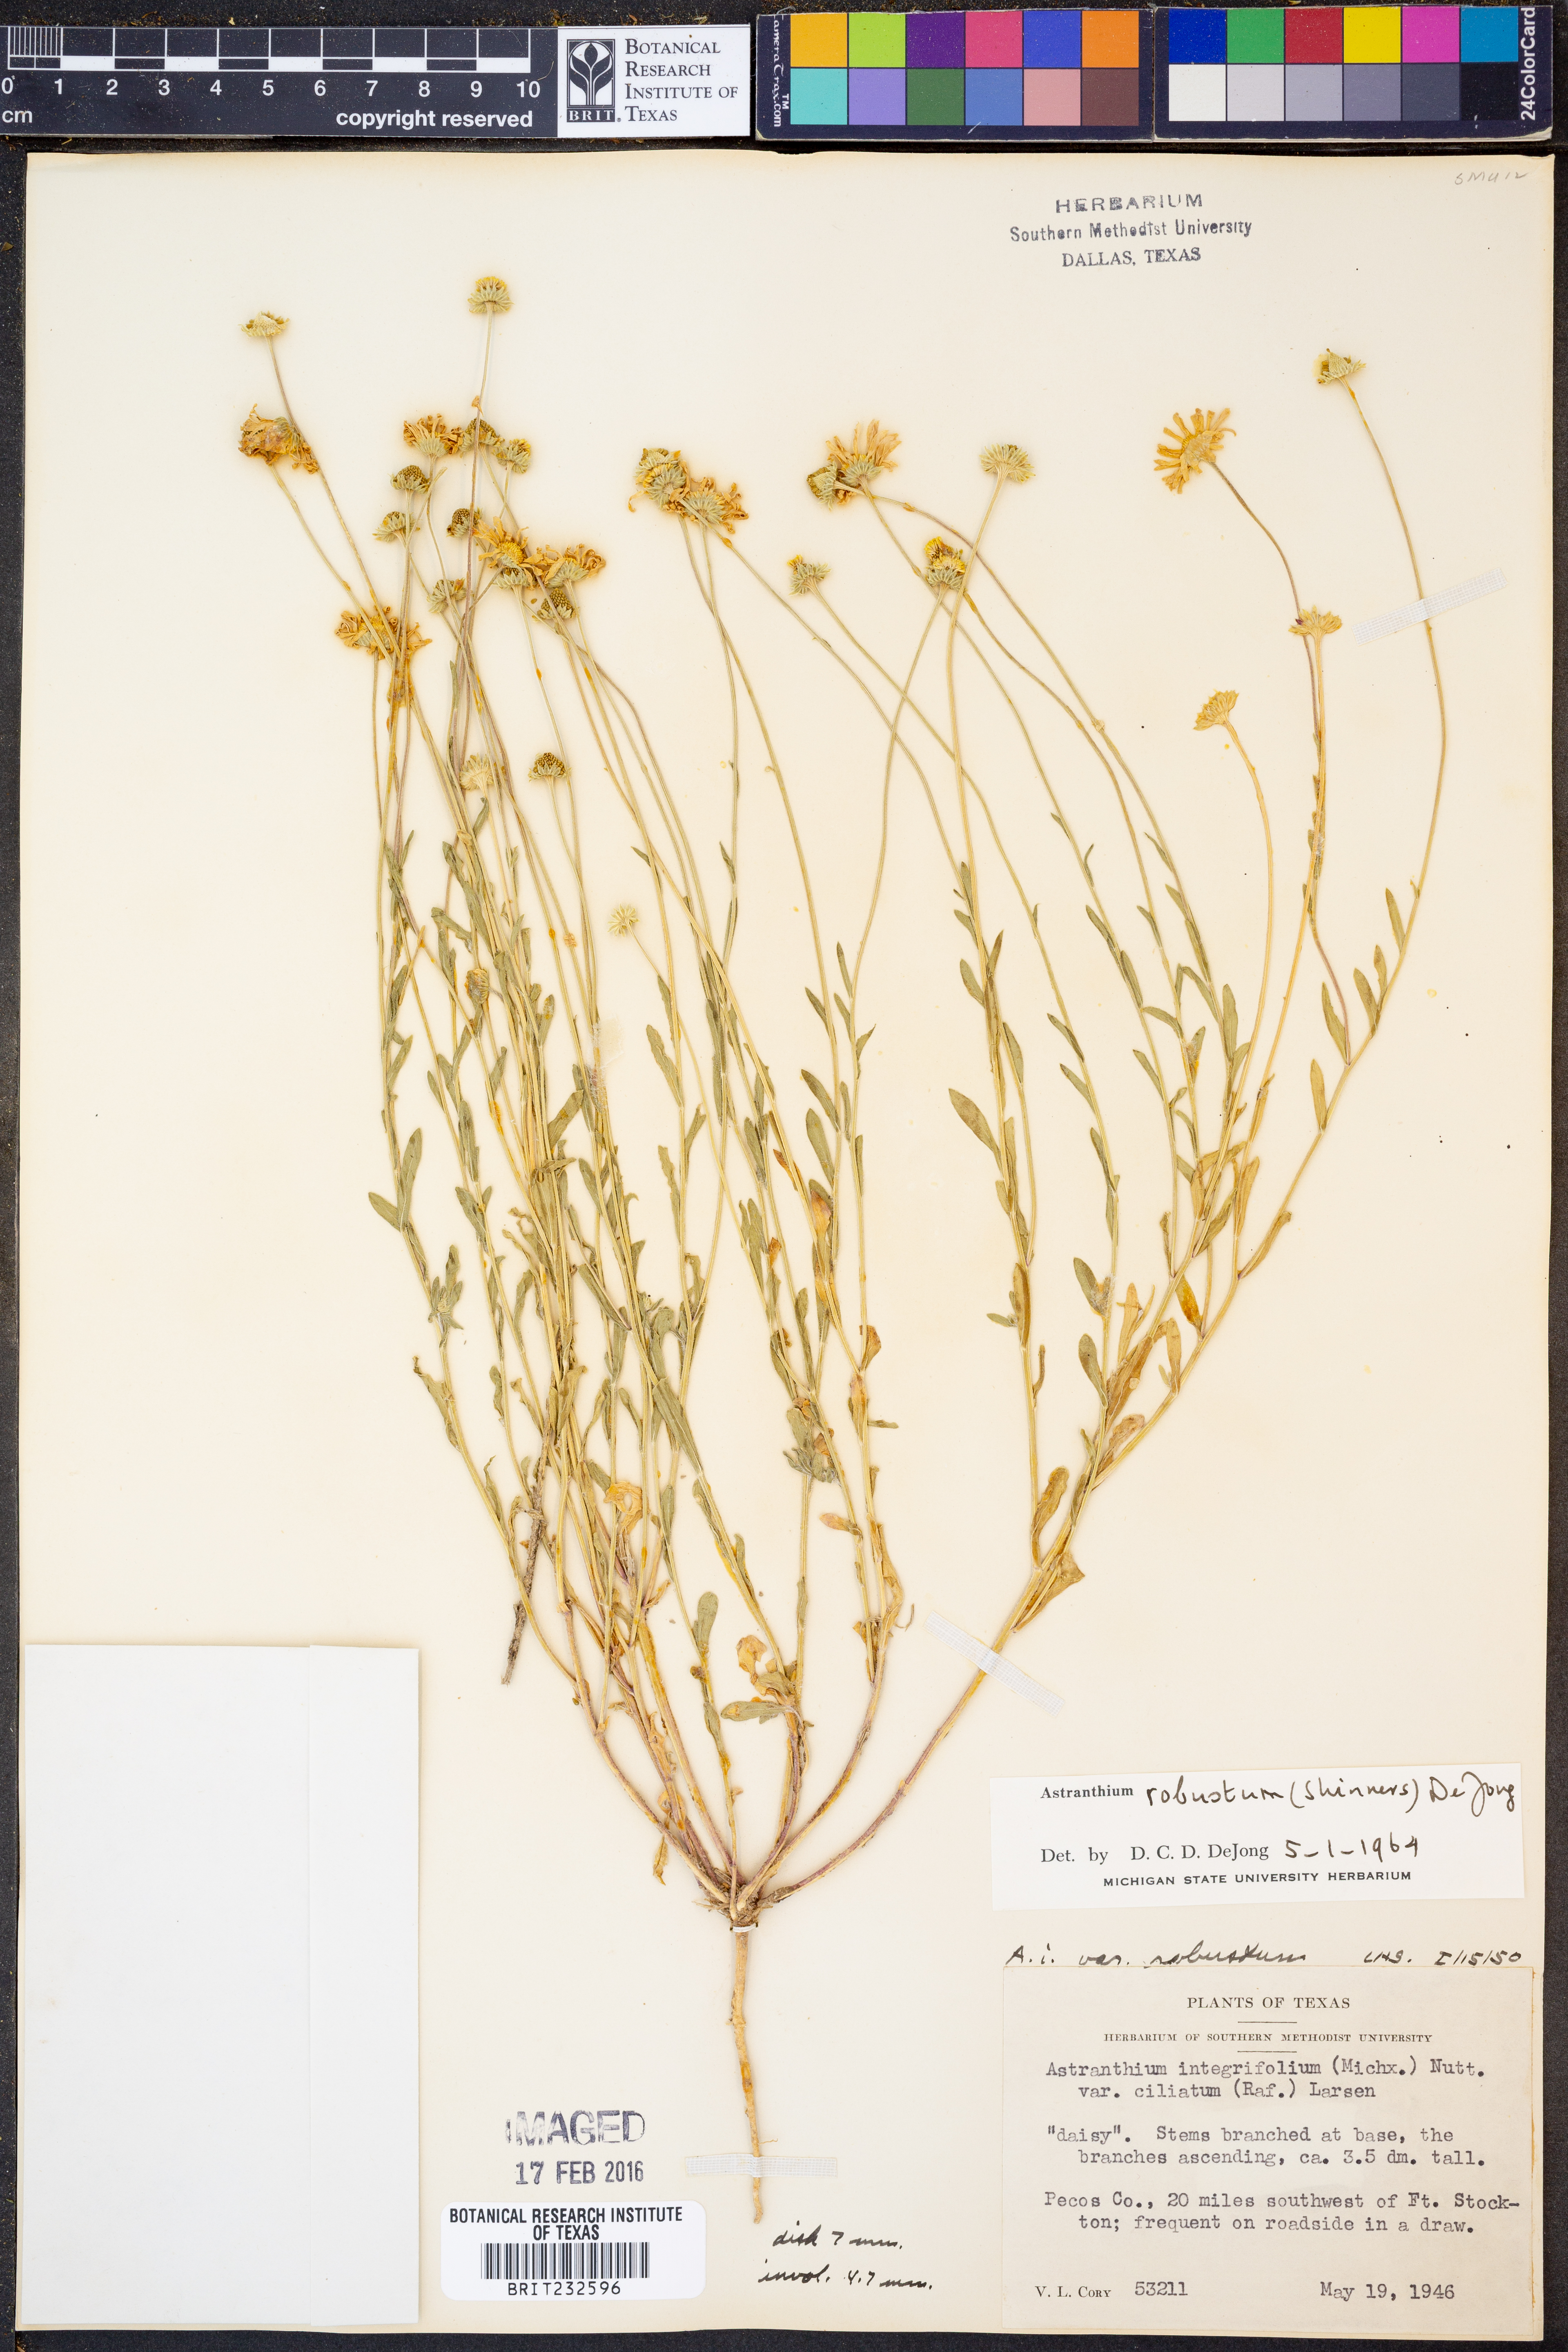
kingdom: Plantae
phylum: Tracheophyta
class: Magnoliopsida
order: Asterales
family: Asteraceae
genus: Astranthium
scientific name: Astranthium robustum
